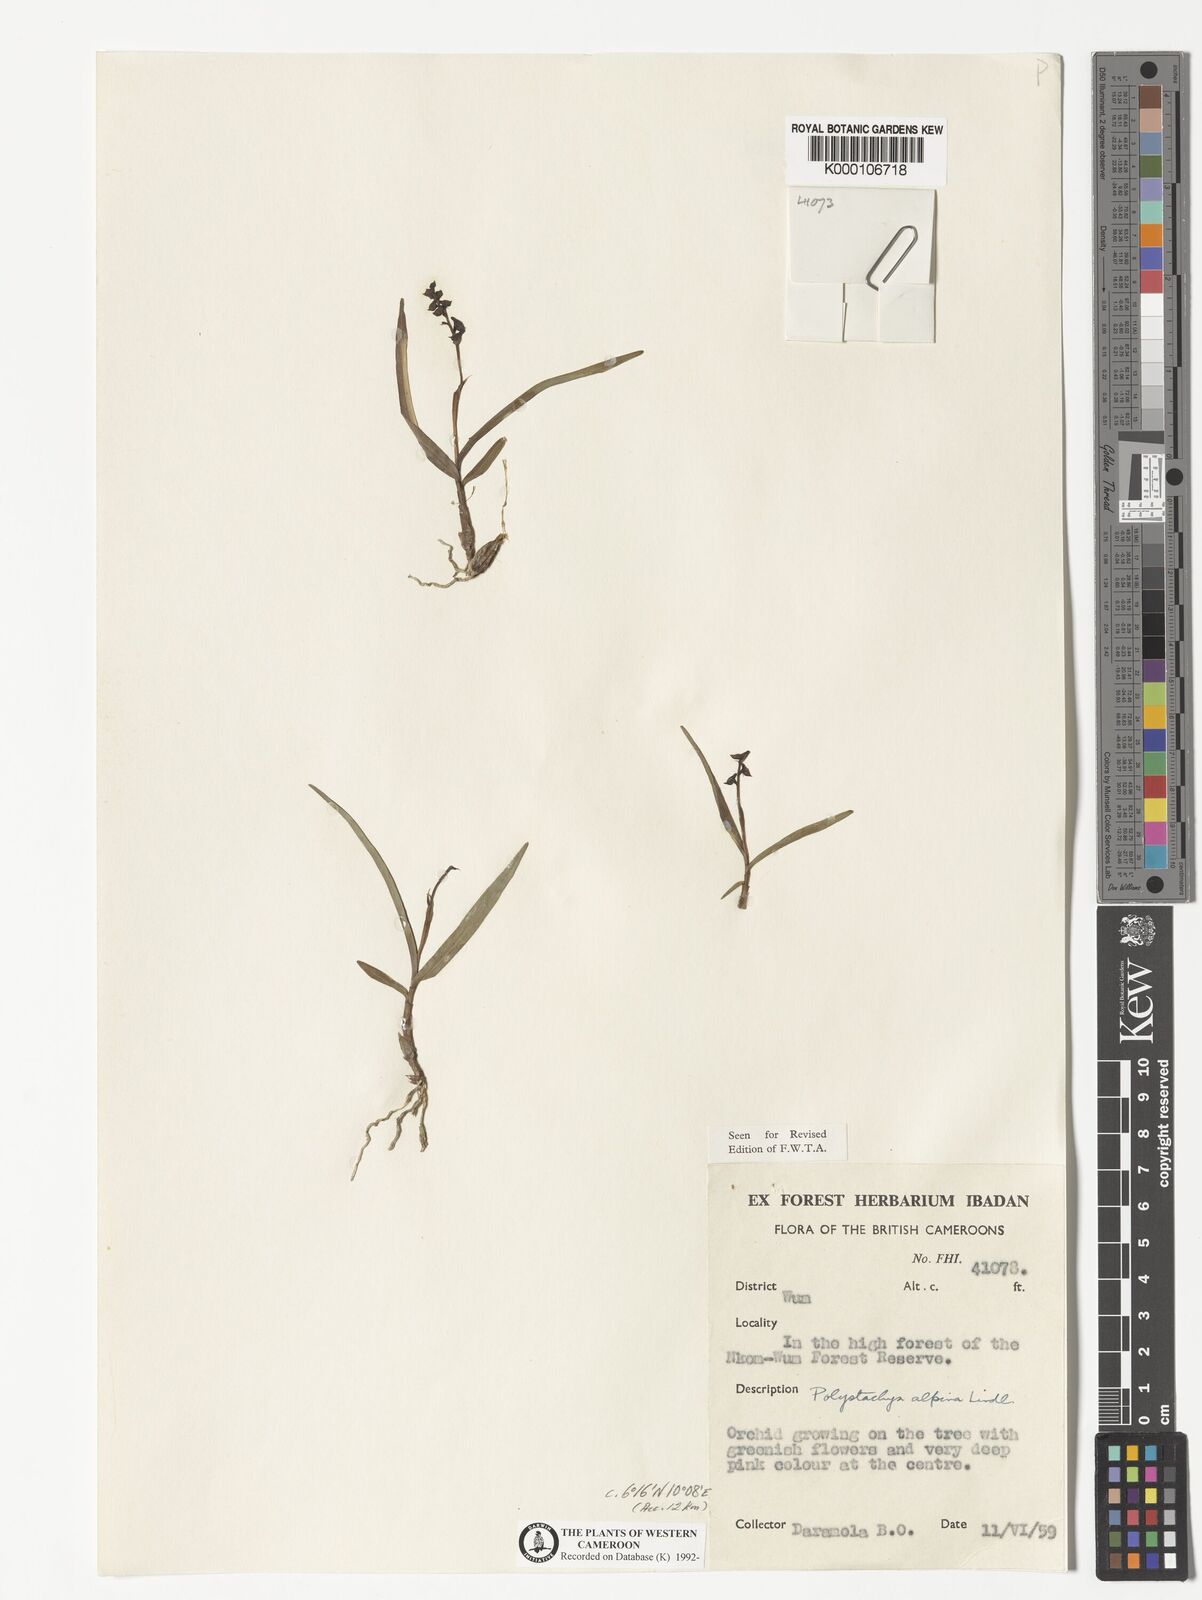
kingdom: Plantae
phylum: Tracheophyta
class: Liliopsida
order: Asparagales
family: Orchidaceae
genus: Polystachya
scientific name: Polystachya alpina
